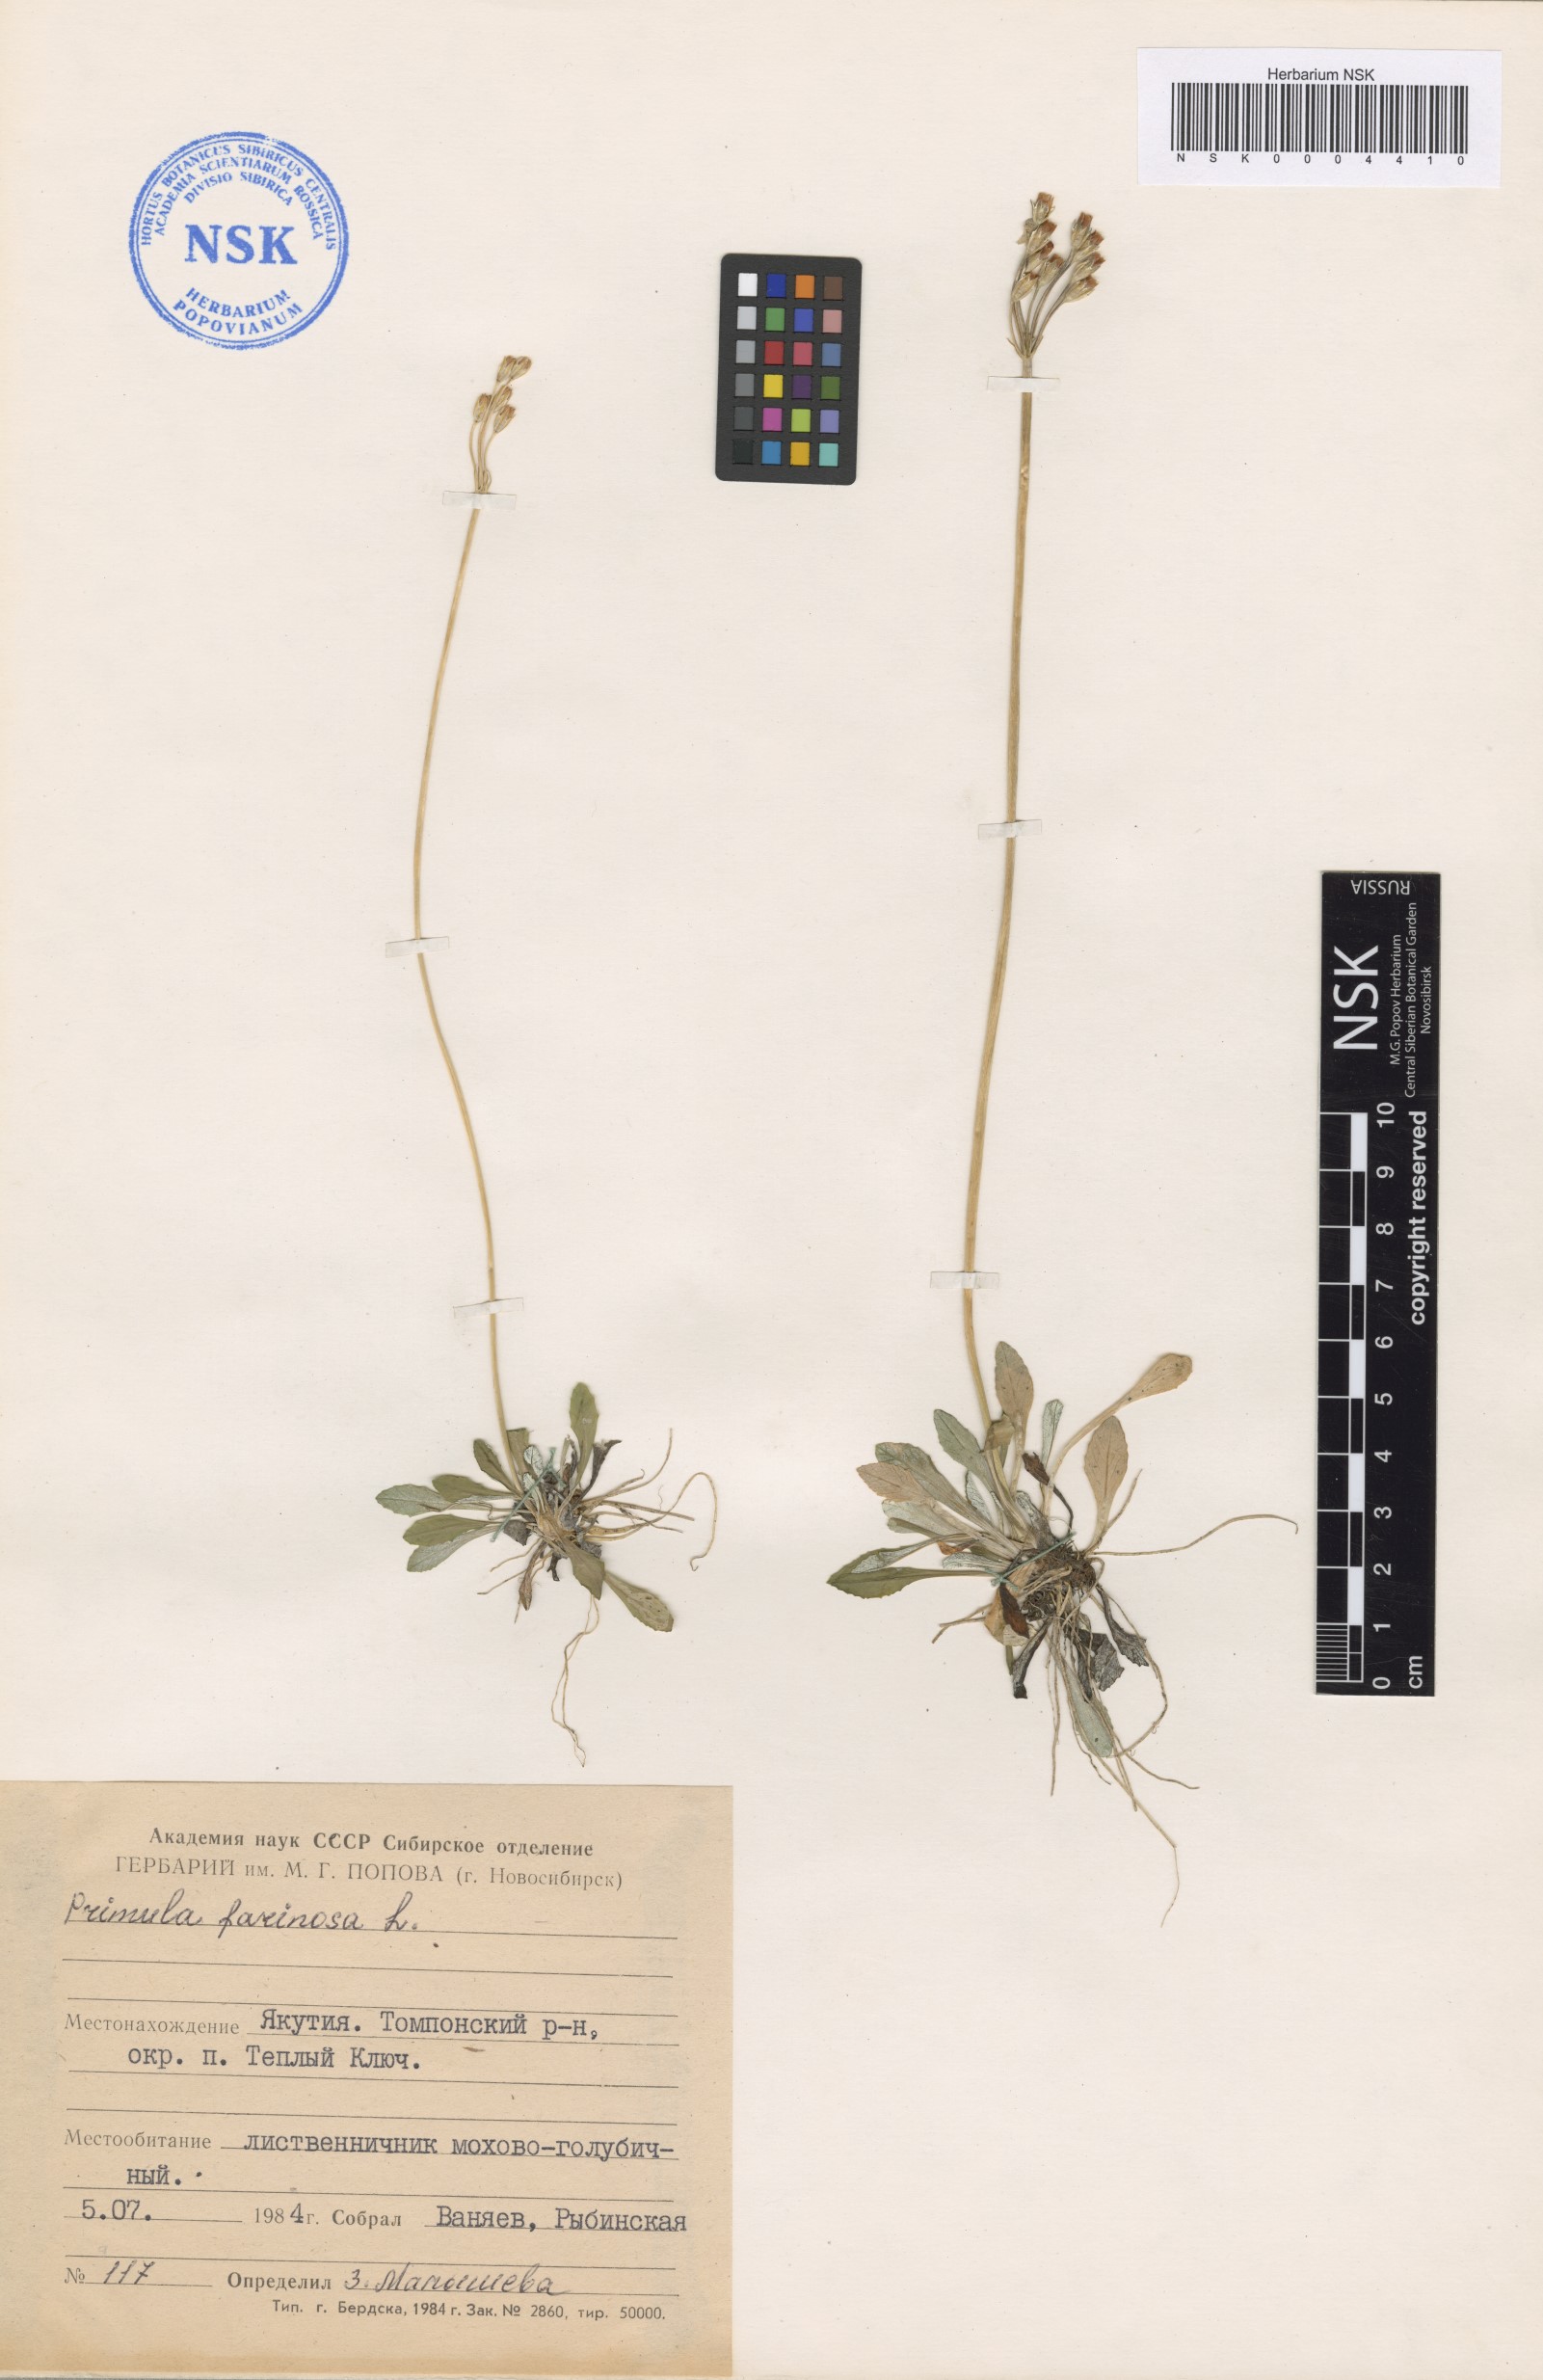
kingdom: Plantae
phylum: Tracheophyta
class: Magnoliopsida
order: Ericales
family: Primulaceae
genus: Primula
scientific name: Primula farinosa
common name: Bird's-eye primrose
